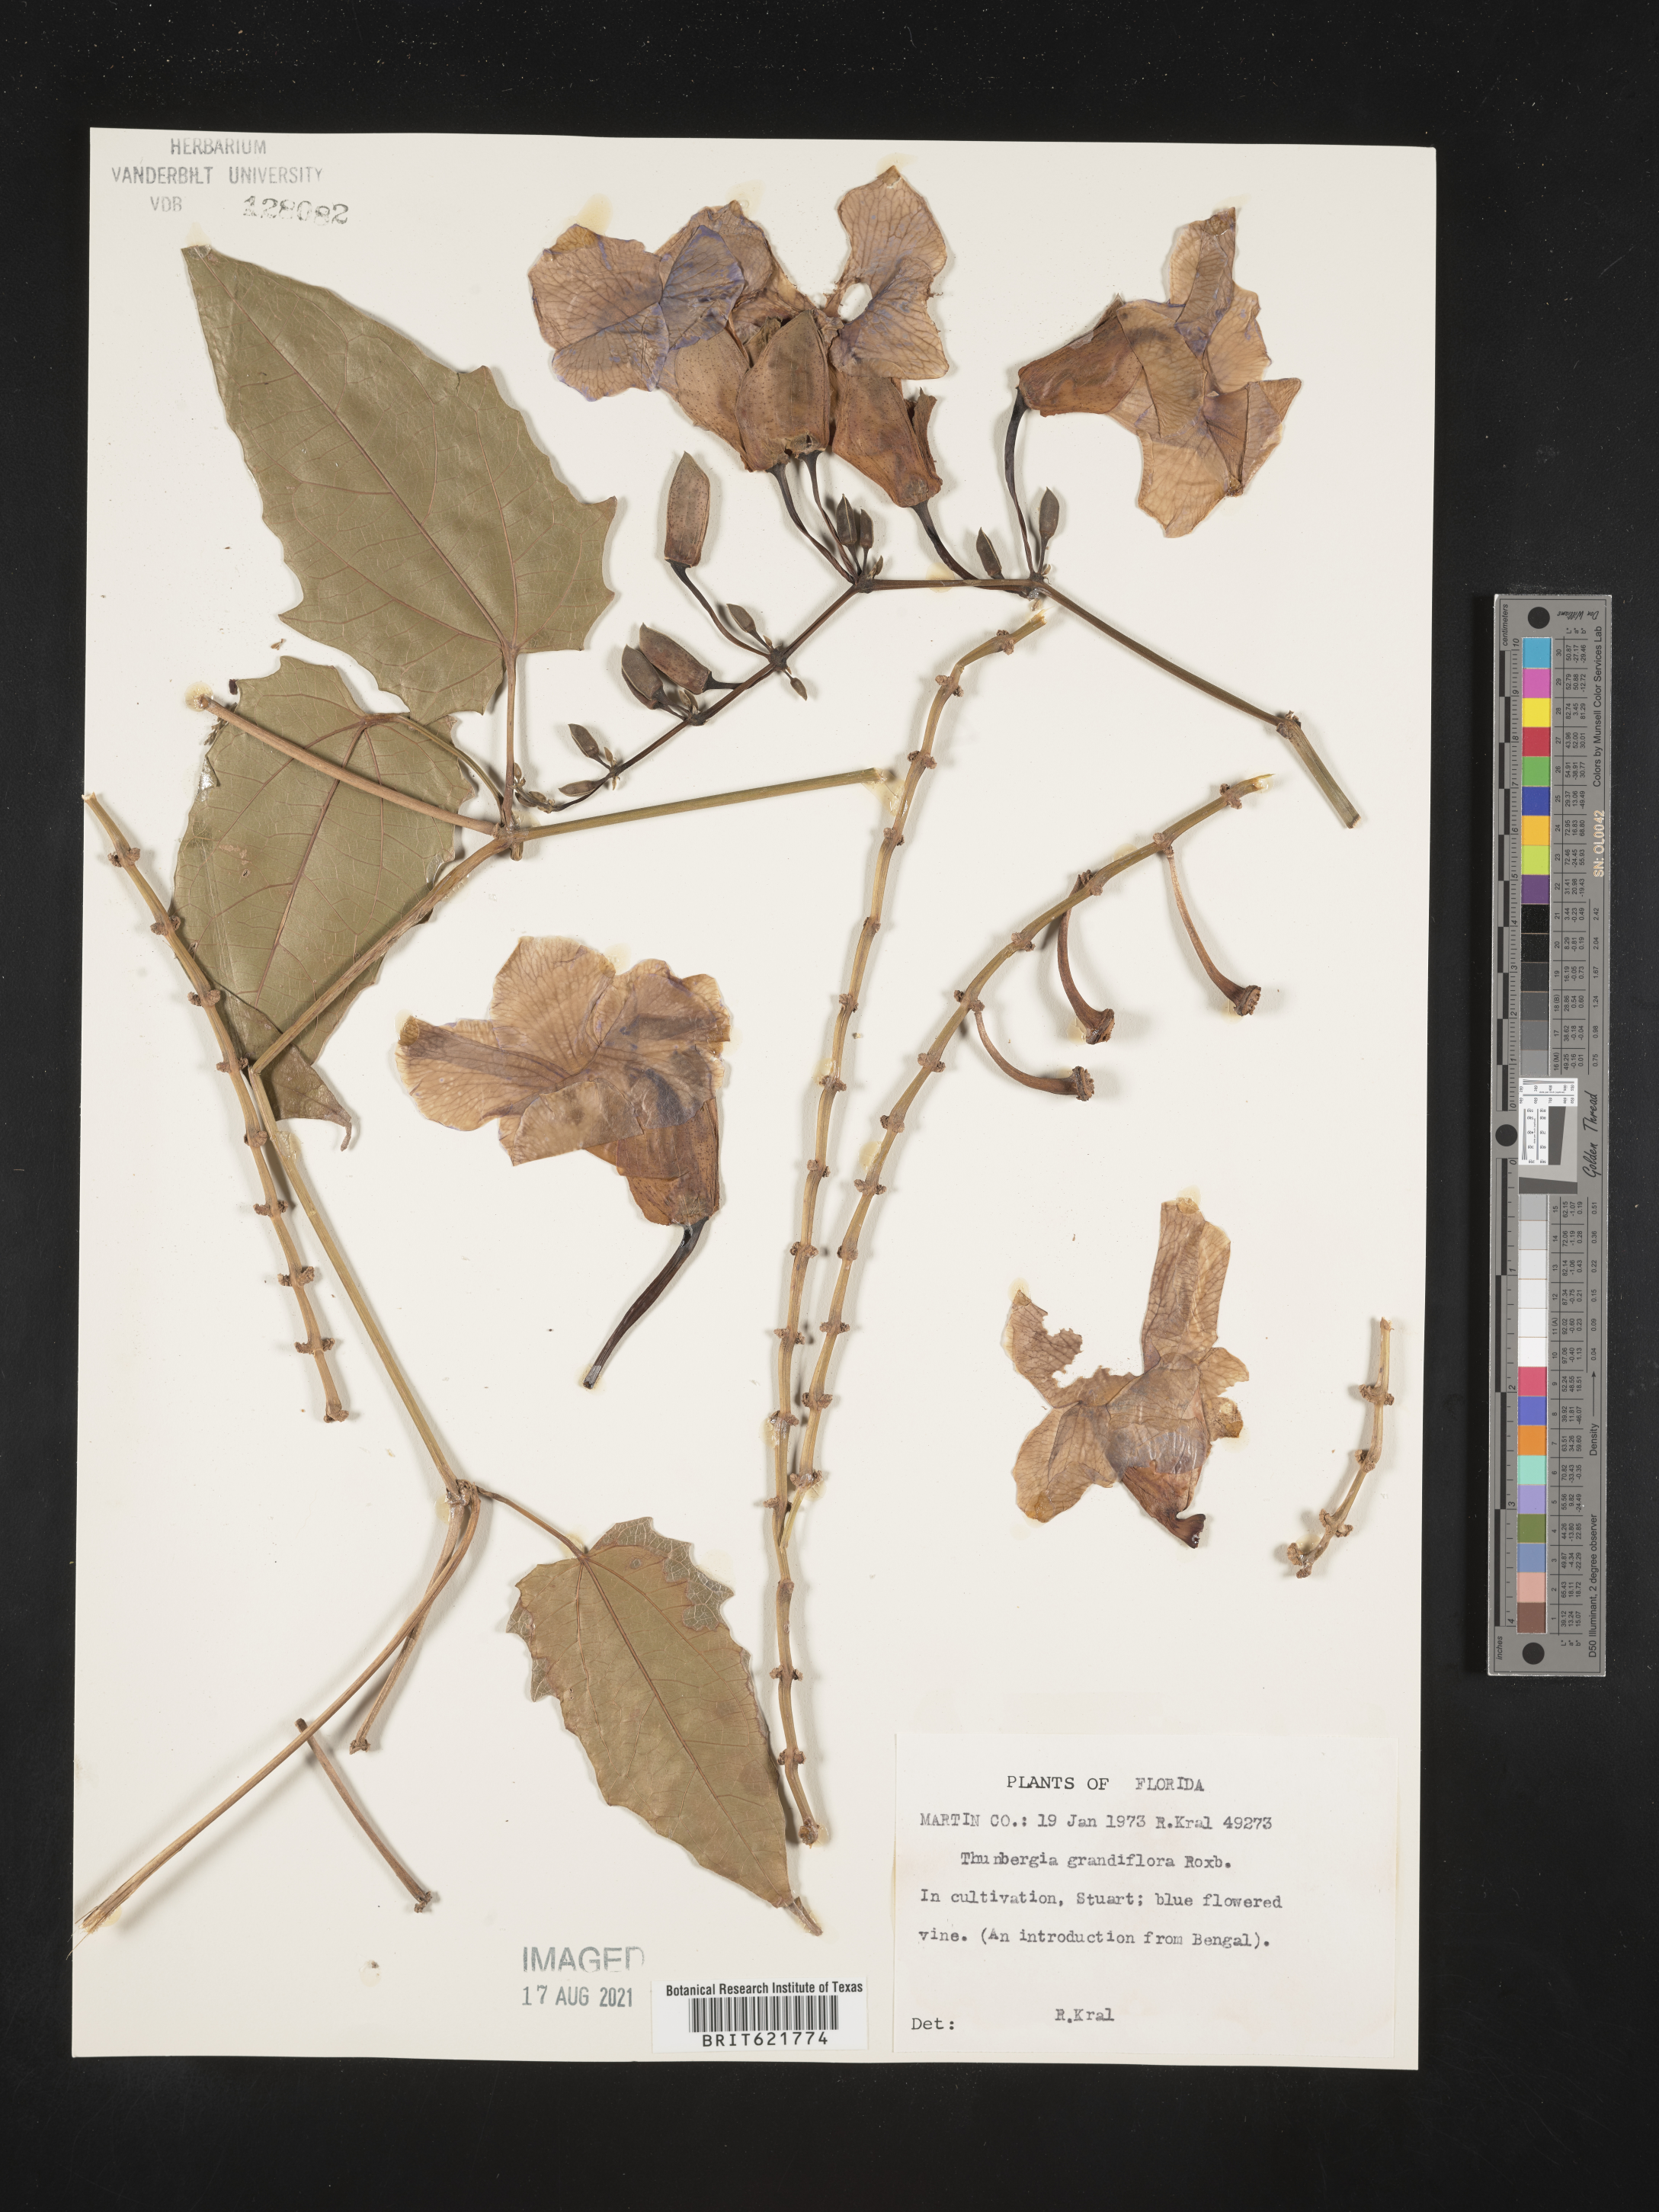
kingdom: Plantae
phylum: Tracheophyta
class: Magnoliopsida
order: Lamiales
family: Acanthaceae
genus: Thunbergia
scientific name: Thunbergia grandiflora
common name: Bengal trumpet
